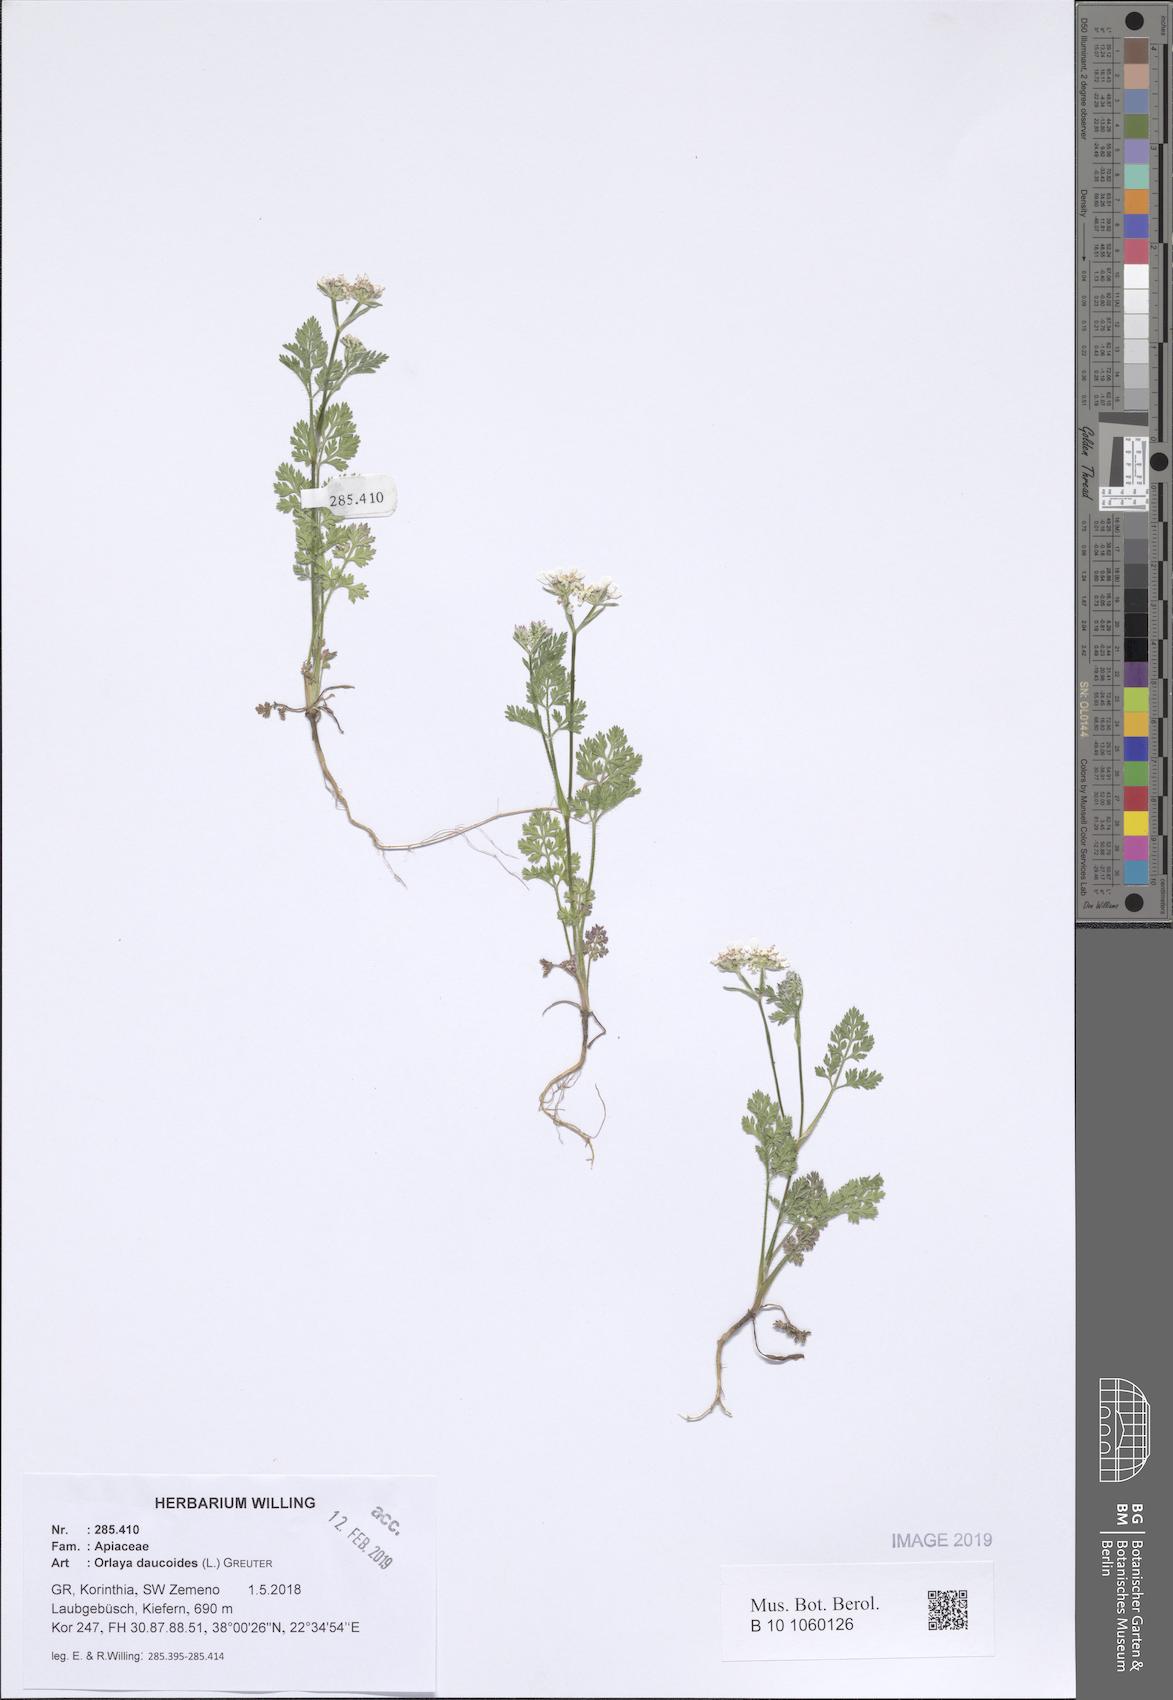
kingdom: Plantae
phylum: Tracheophyta
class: Magnoliopsida
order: Apiales
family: Apiaceae
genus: Orlaya
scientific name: Orlaya daucoides
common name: Flat-fruit orlaya
